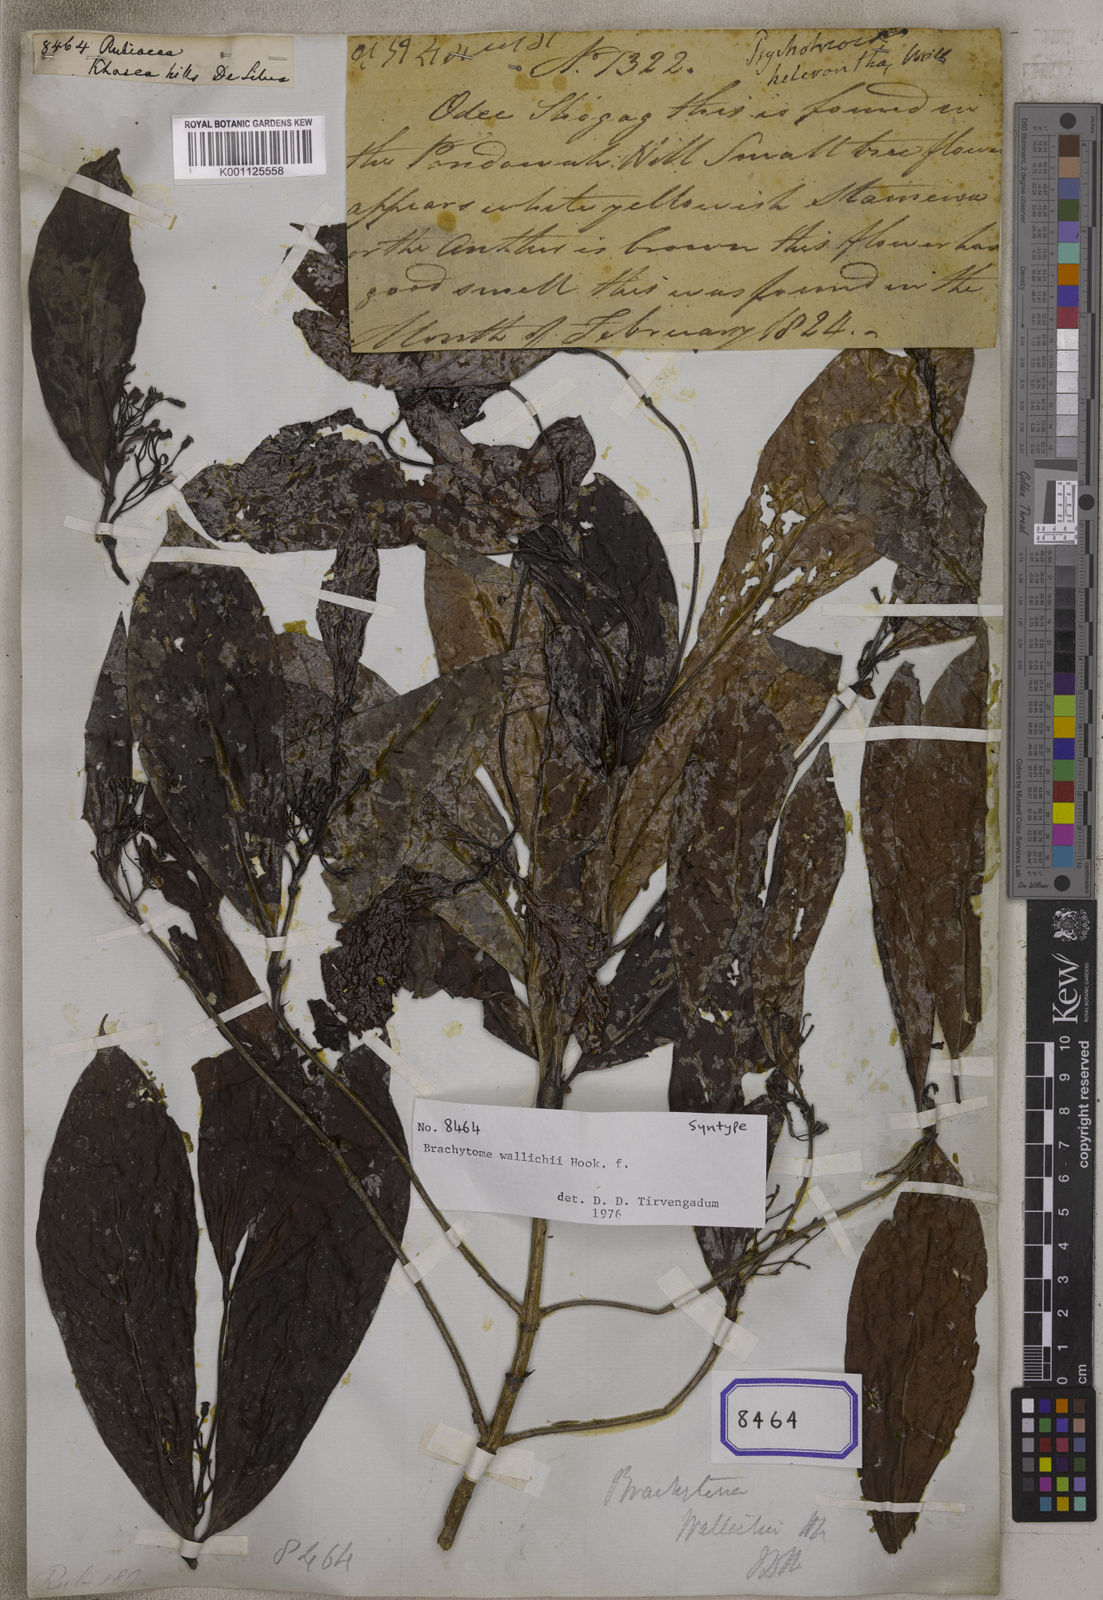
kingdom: Plantae
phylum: Tracheophyta
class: Magnoliopsida
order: Gentianales
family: Rubiaceae
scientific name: Rubiaceae
